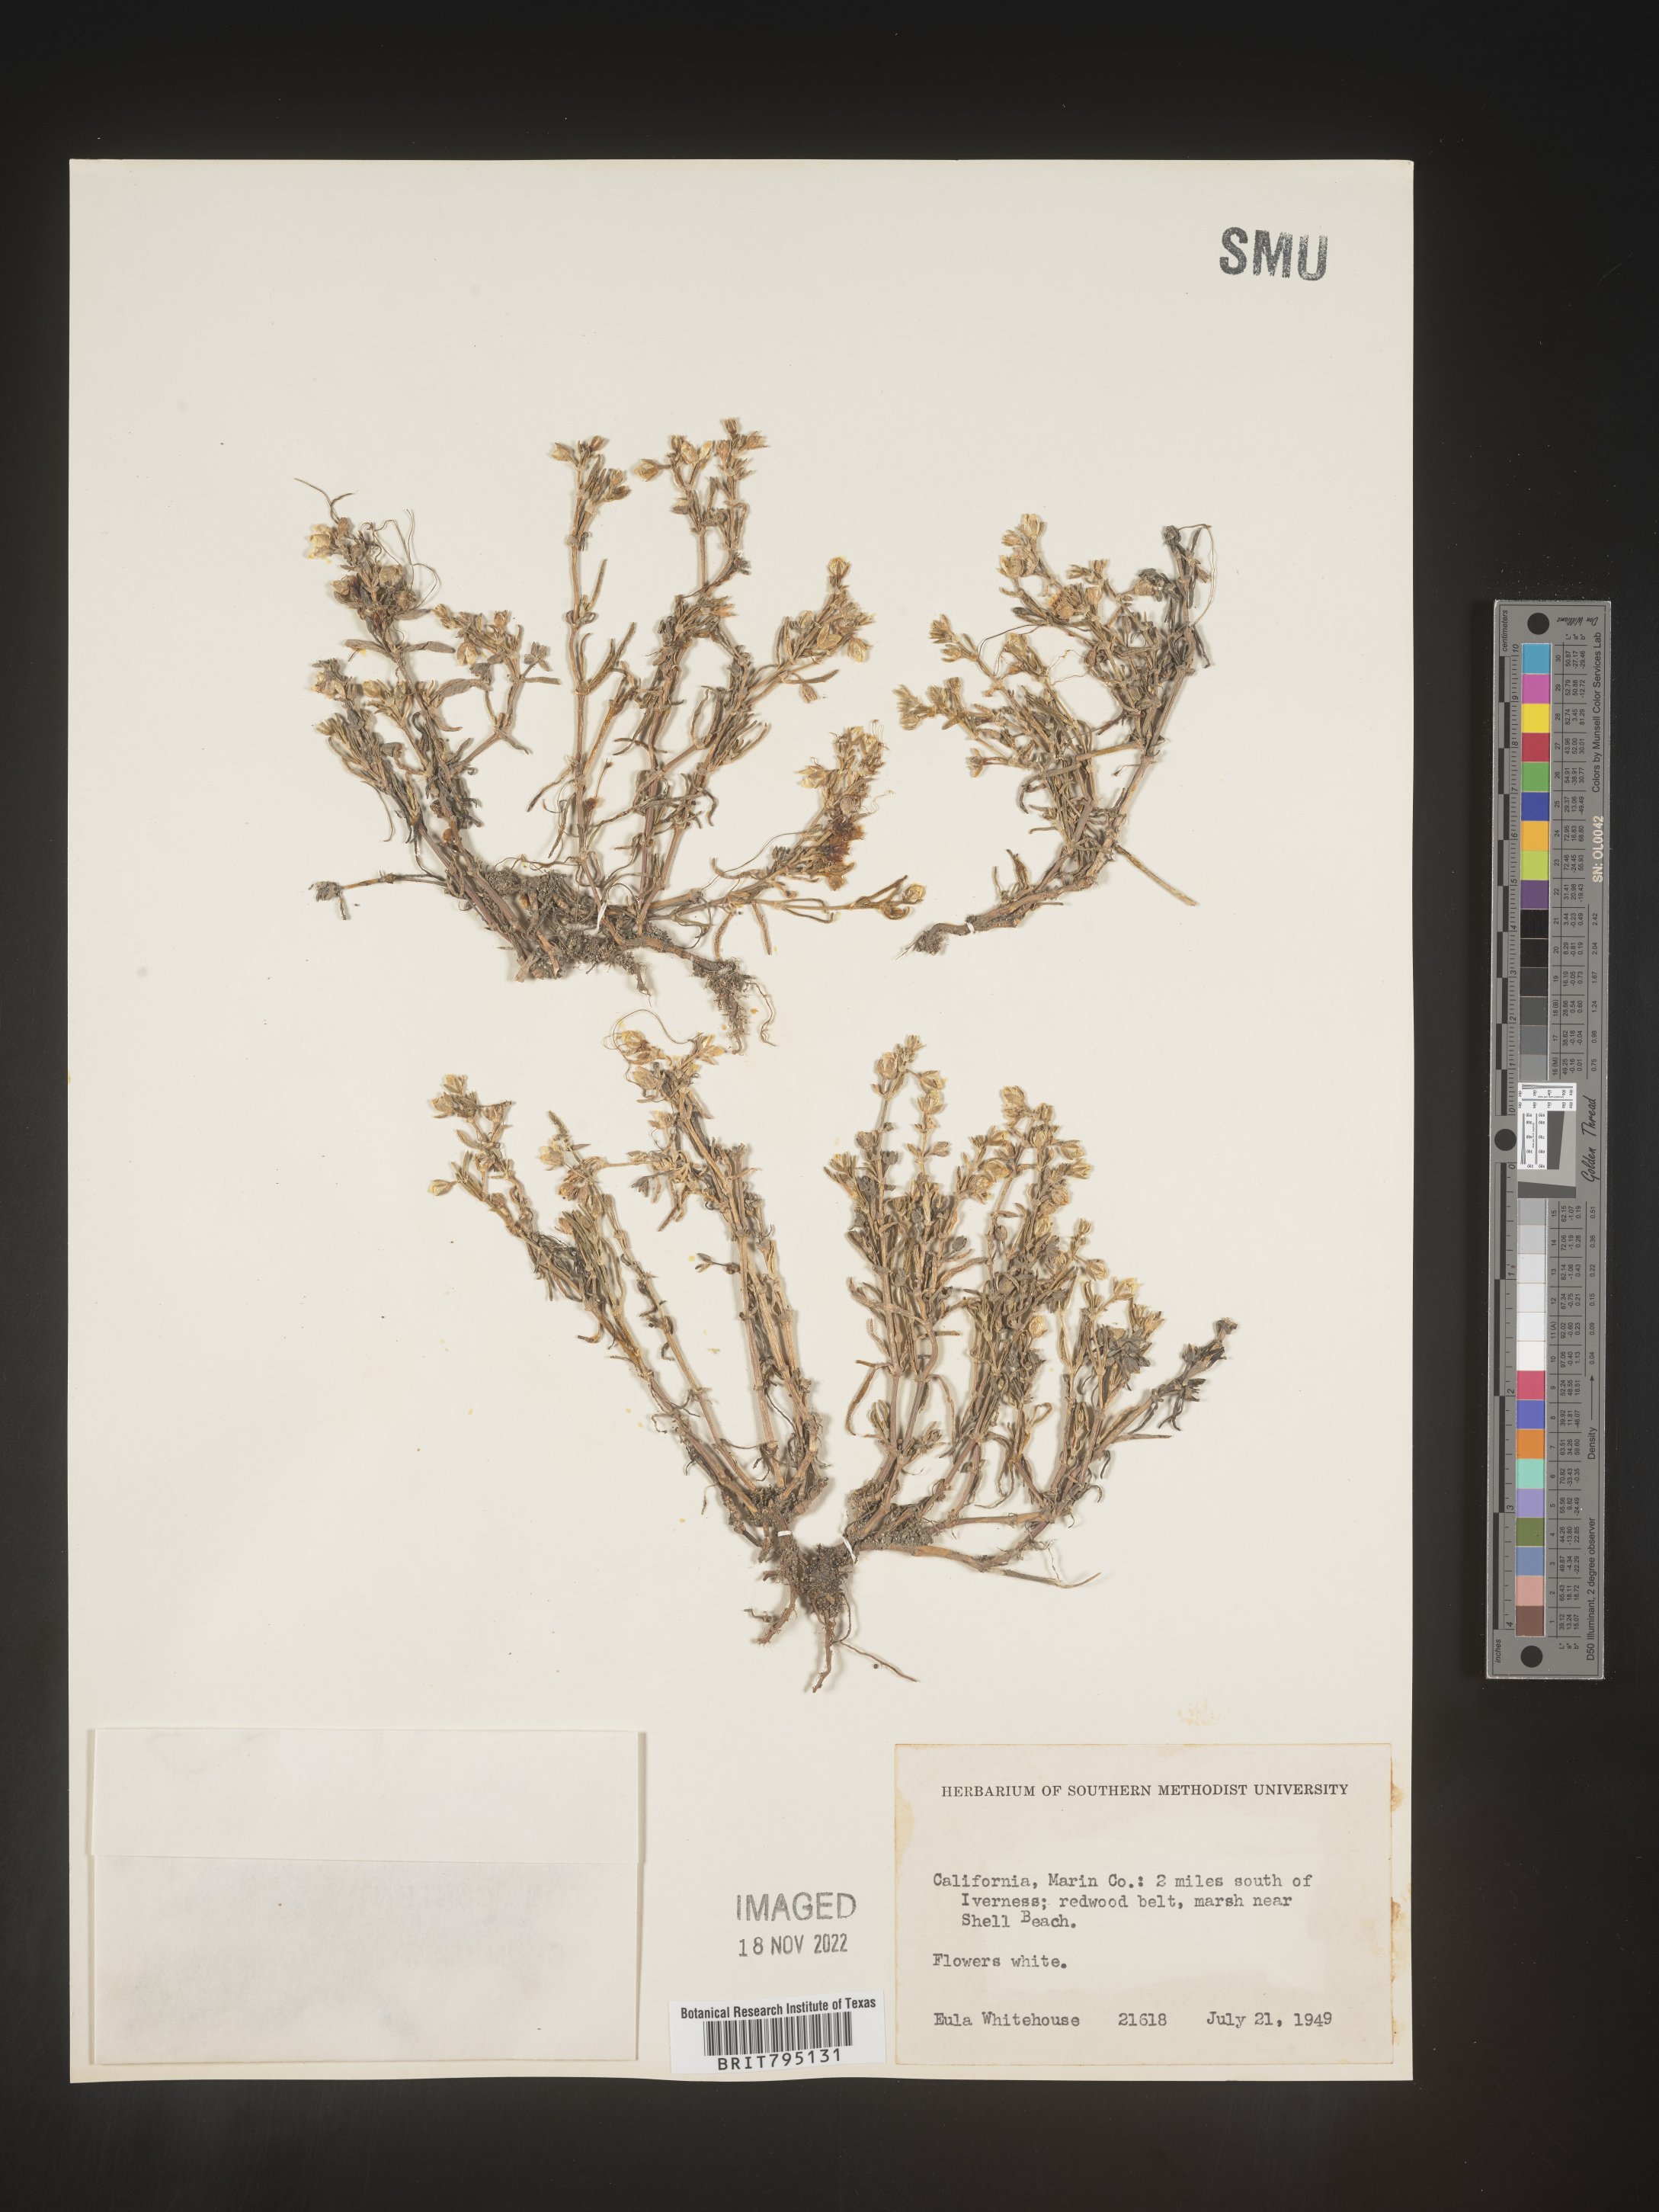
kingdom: Plantae
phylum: Tracheophyta
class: Magnoliopsida
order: Caryophyllales
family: Caryophyllaceae
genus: Spergularia
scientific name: Spergularia
